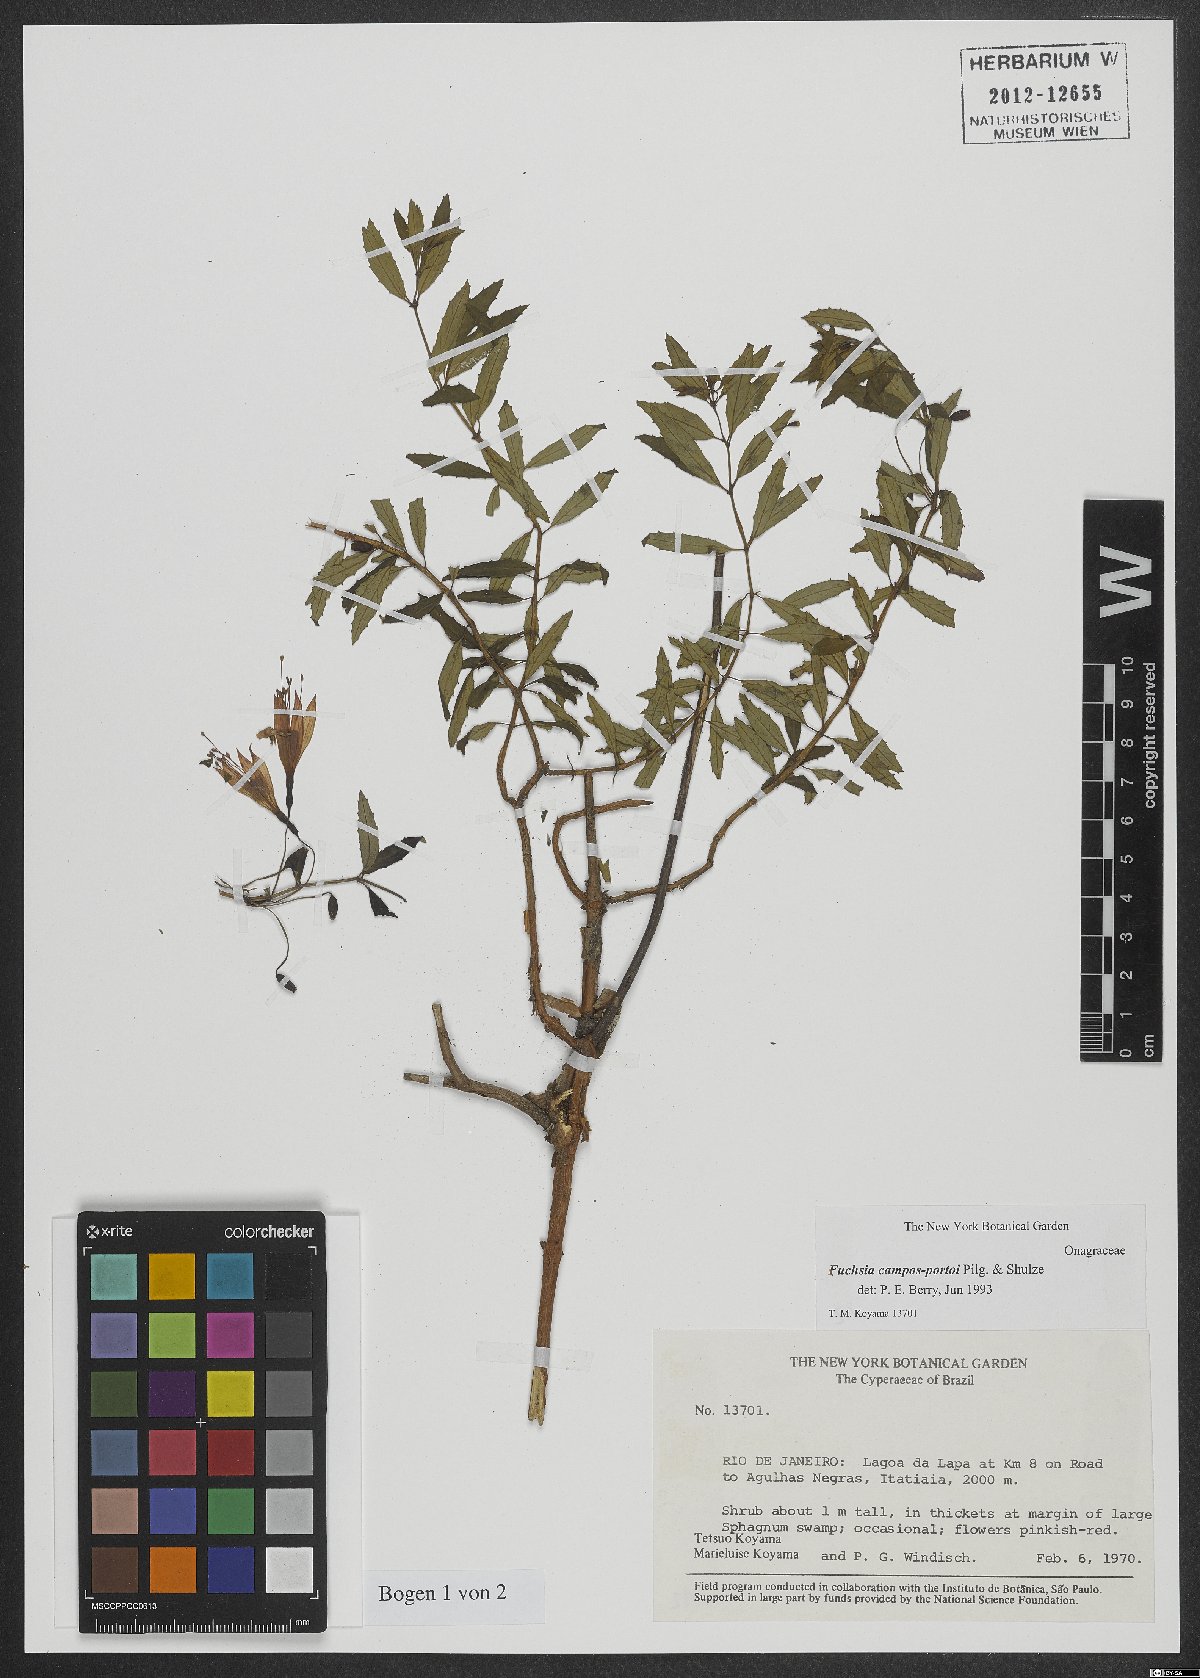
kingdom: Plantae
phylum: Tracheophyta
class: Magnoliopsida
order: Myrtales
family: Onagraceae
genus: Fuchsia
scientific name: Fuchsia campos-portoi
